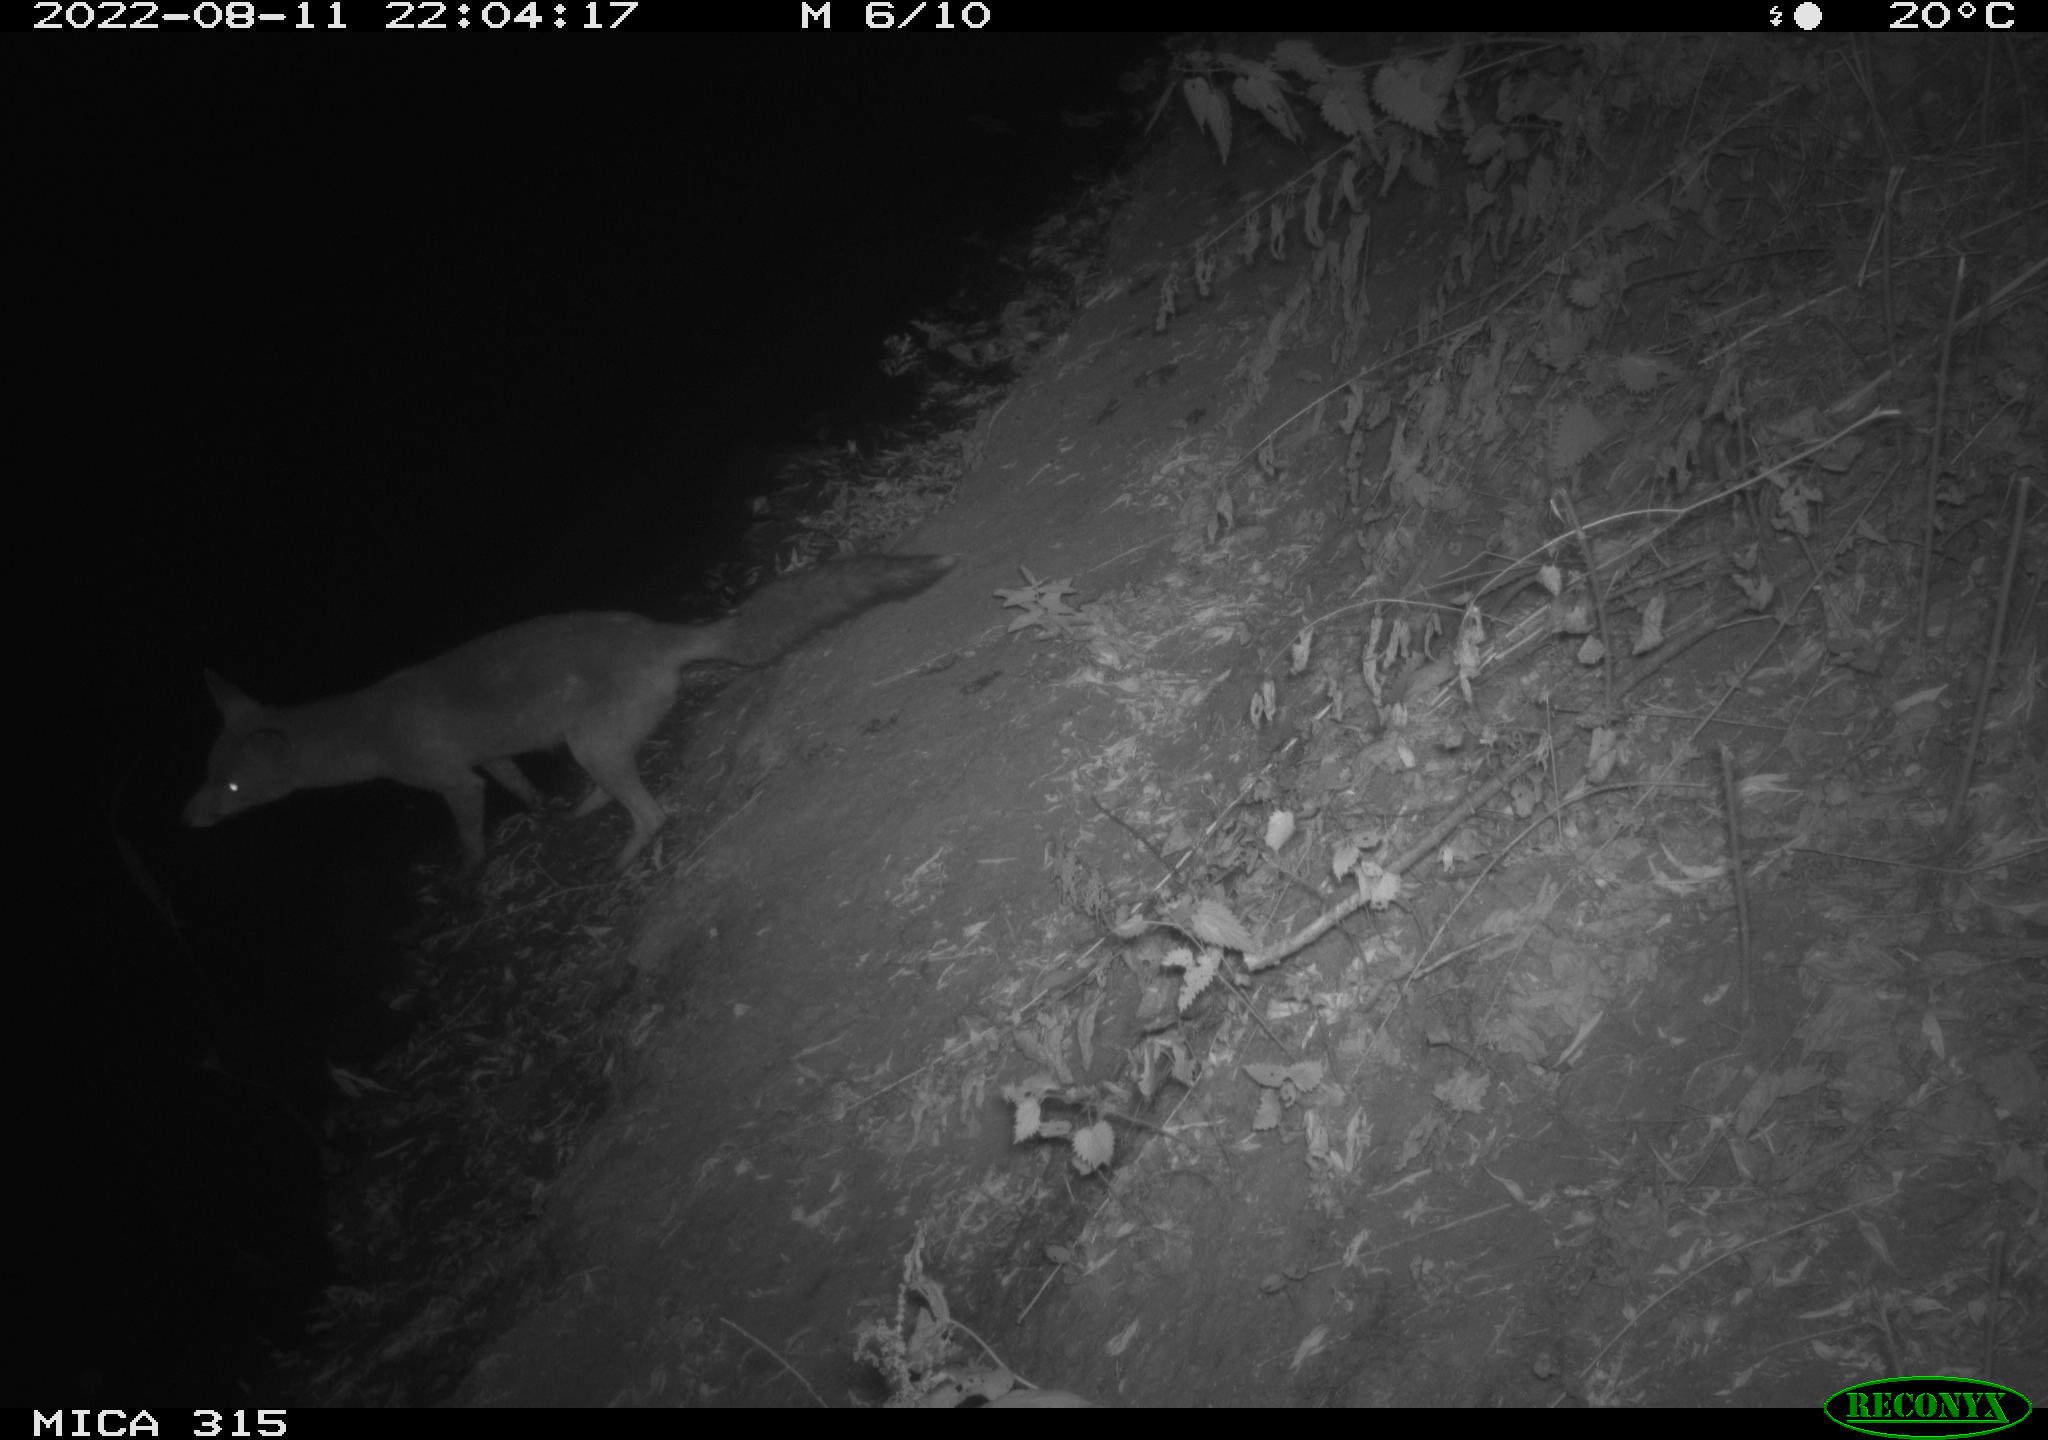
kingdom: Animalia
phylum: Chordata
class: Mammalia
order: Carnivora
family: Canidae
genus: Vulpes
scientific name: Vulpes vulpes
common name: Red fox
